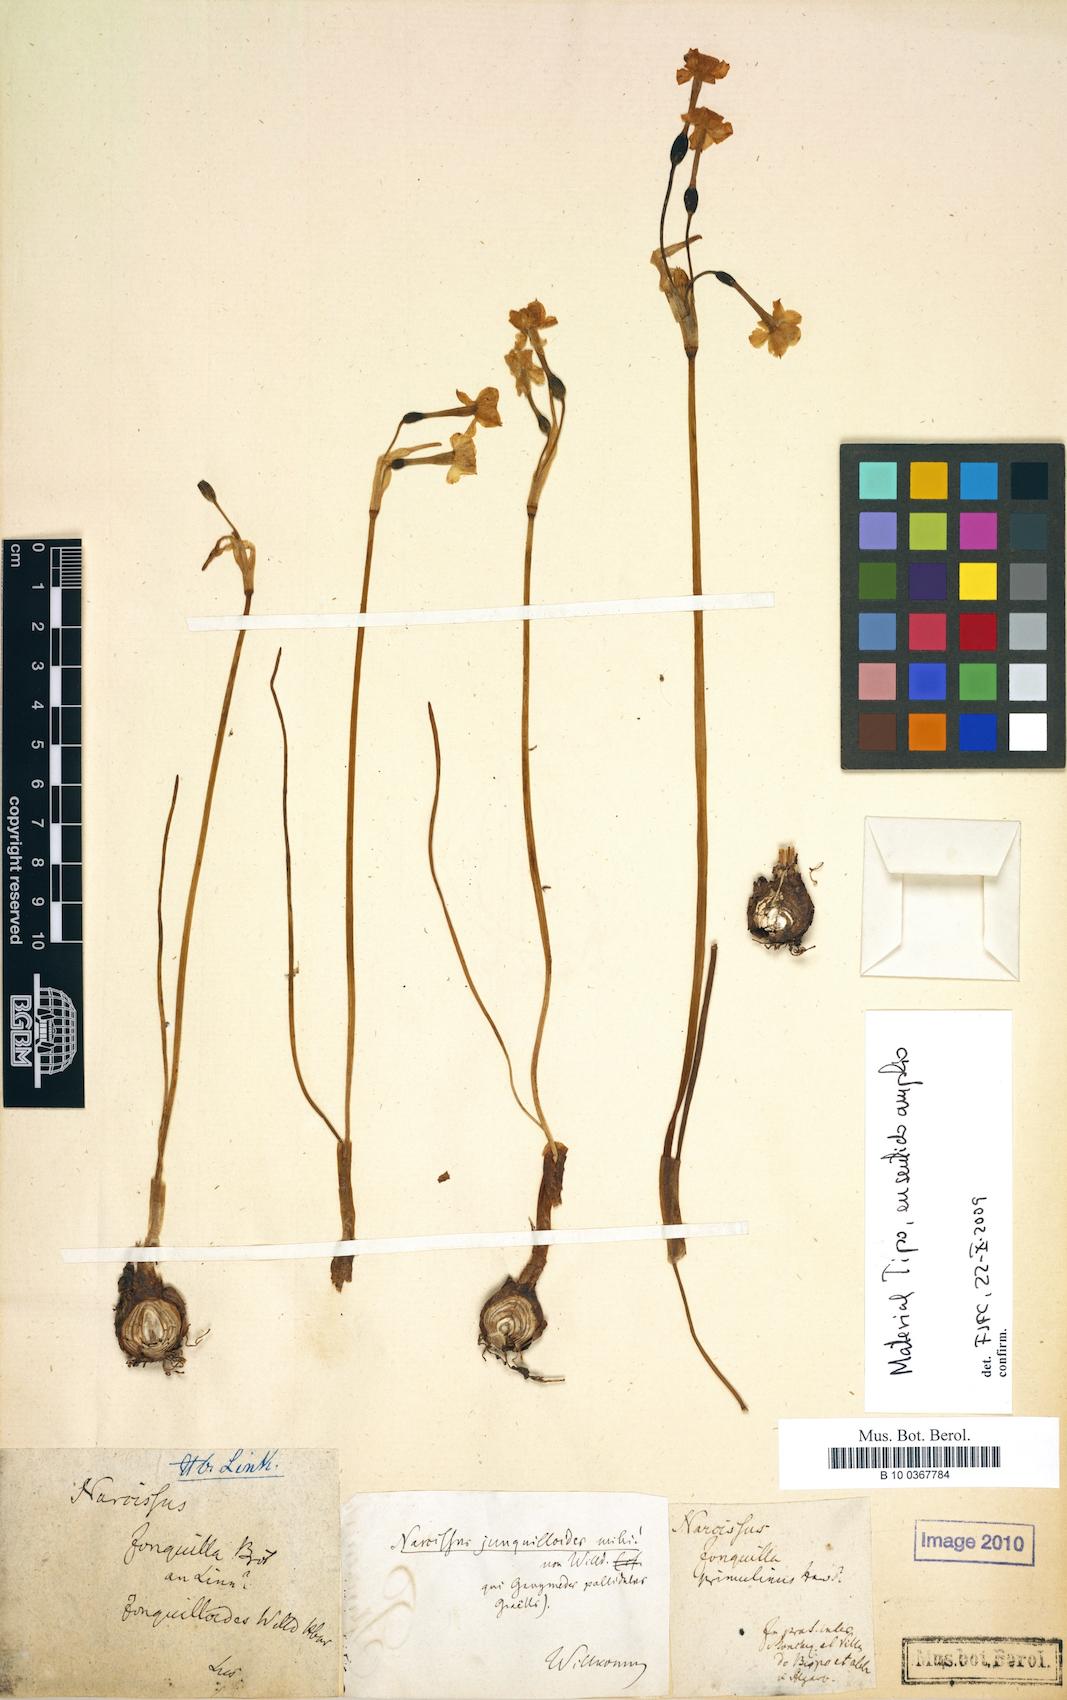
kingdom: Plantae
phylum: Tracheophyta
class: Liliopsida
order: Asparagales
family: Amaryllidaceae
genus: Narcissus
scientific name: Narcissus willkommii
